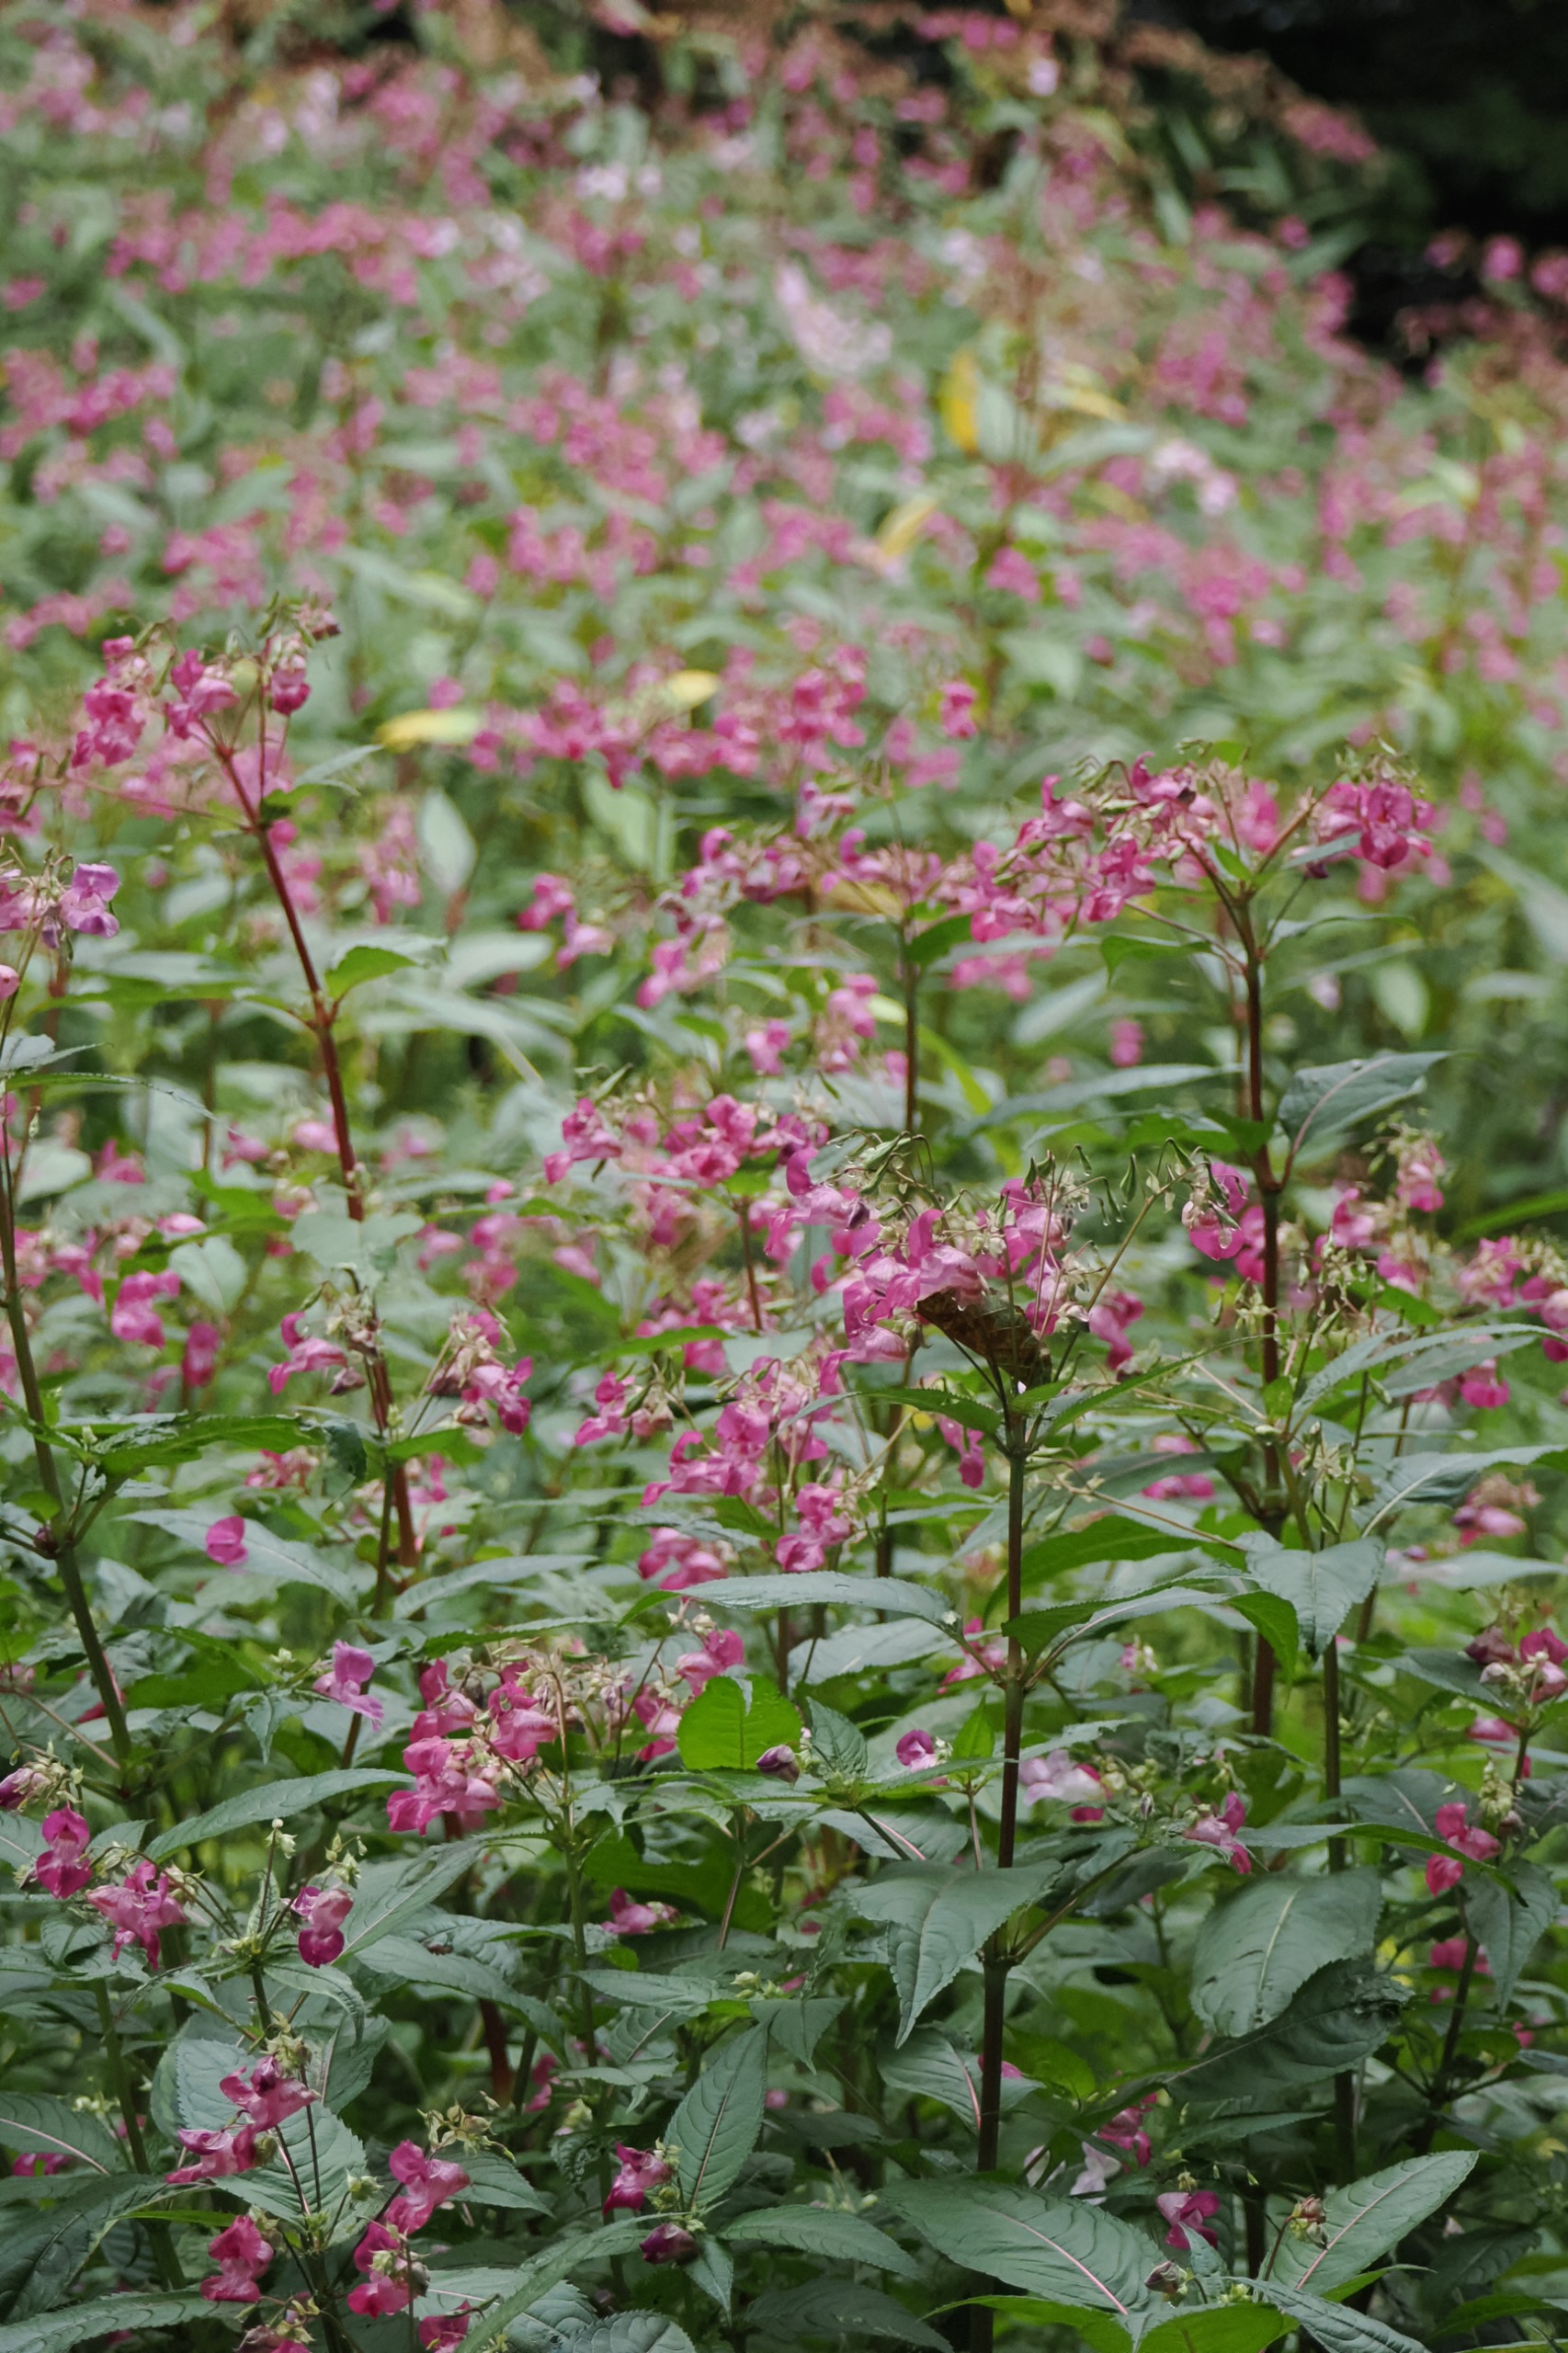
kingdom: Plantae
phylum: Tracheophyta
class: Magnoliopsida
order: Ericales
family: Balsaminaceae
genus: Impatiens
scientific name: Impatiens glandulifera
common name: Kæmpe-balsamin
